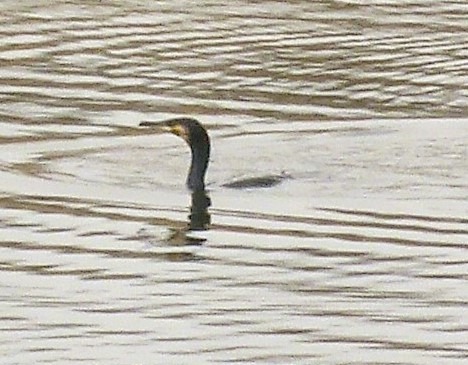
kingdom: Animalia
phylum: Chordata
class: Aves
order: Suliformes
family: Phalacrocoracidae
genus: Phalacrocorax
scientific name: Phalacrocorax carbo
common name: Skarv
